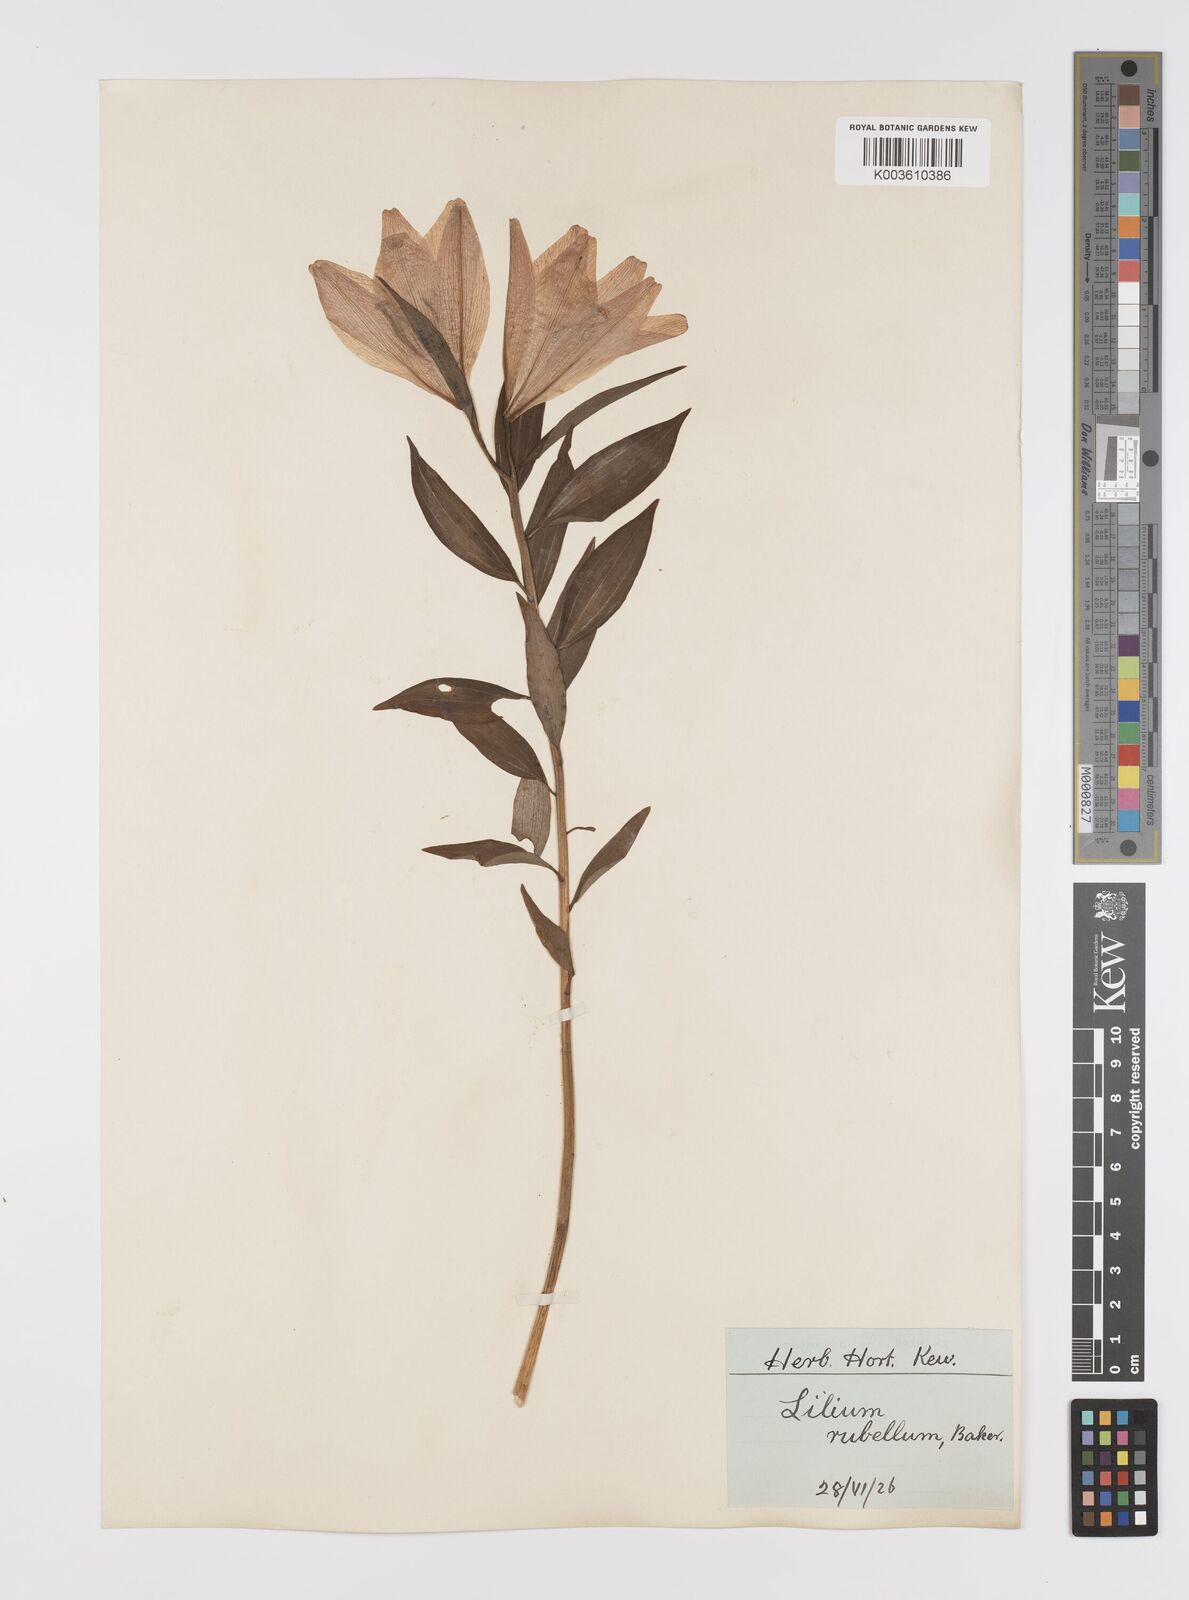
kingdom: Plantae
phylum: Tracheophyta
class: Liliopsida
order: Liliales
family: Liliaceae
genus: Lilium
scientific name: Lilium regale
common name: Regal lily
